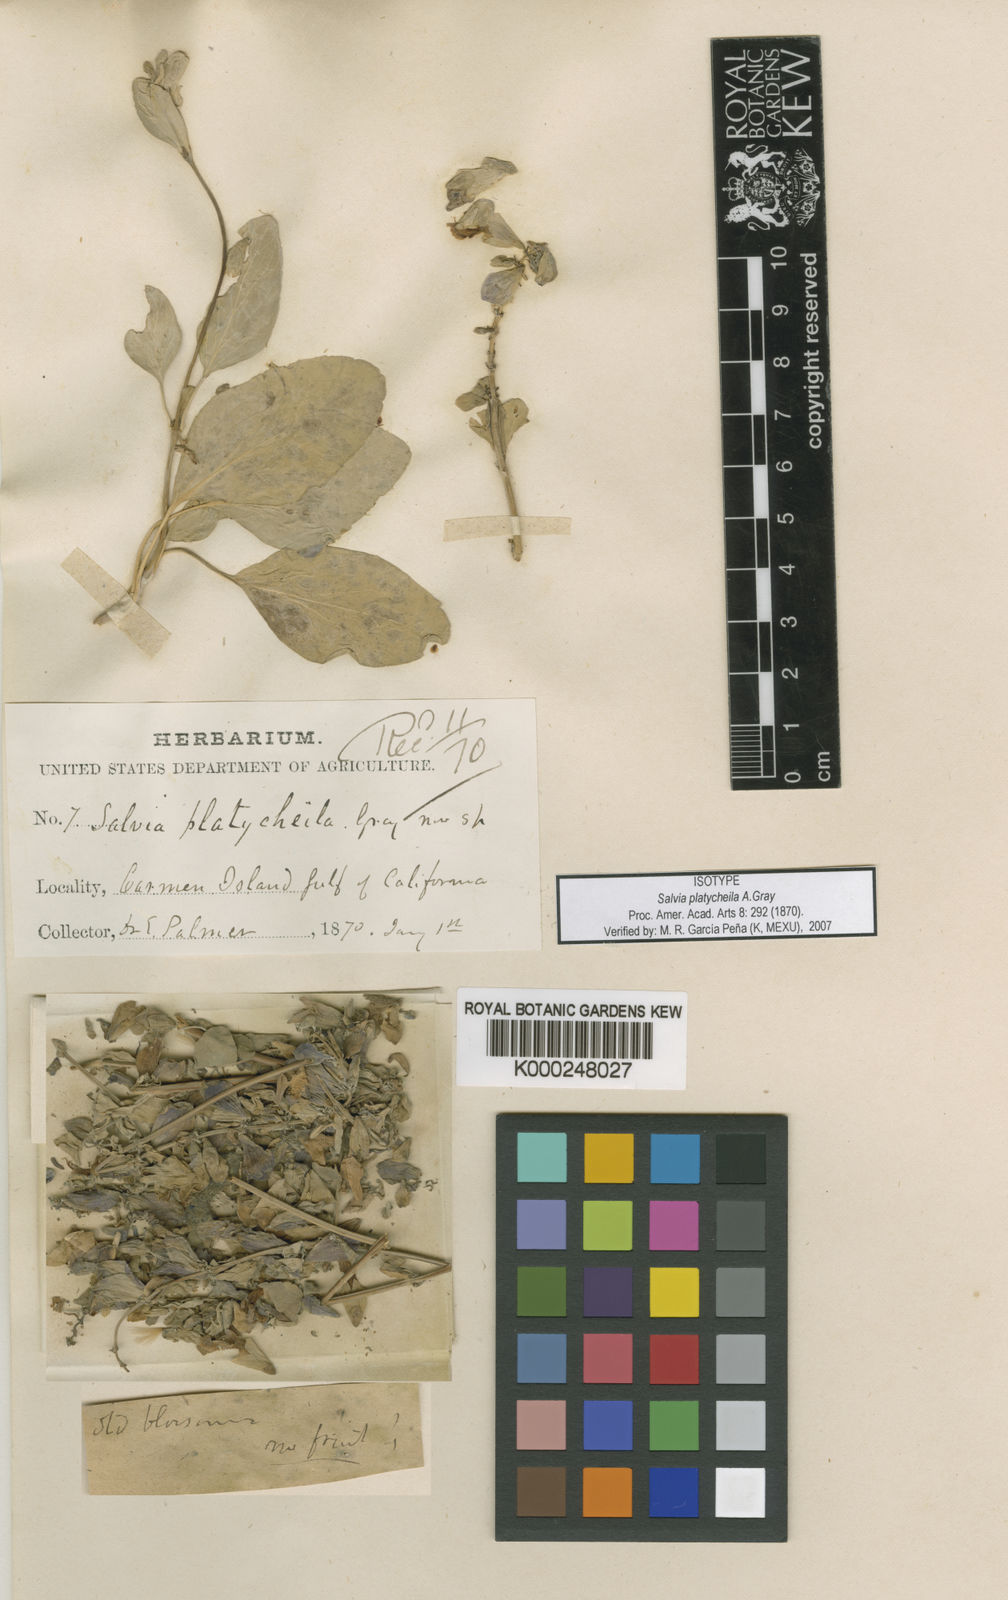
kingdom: Plantae
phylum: Tracheophyta
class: Magnoliopsida
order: Lamiales
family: Lamiaceae
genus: Salvia
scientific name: Salvia platycheila
